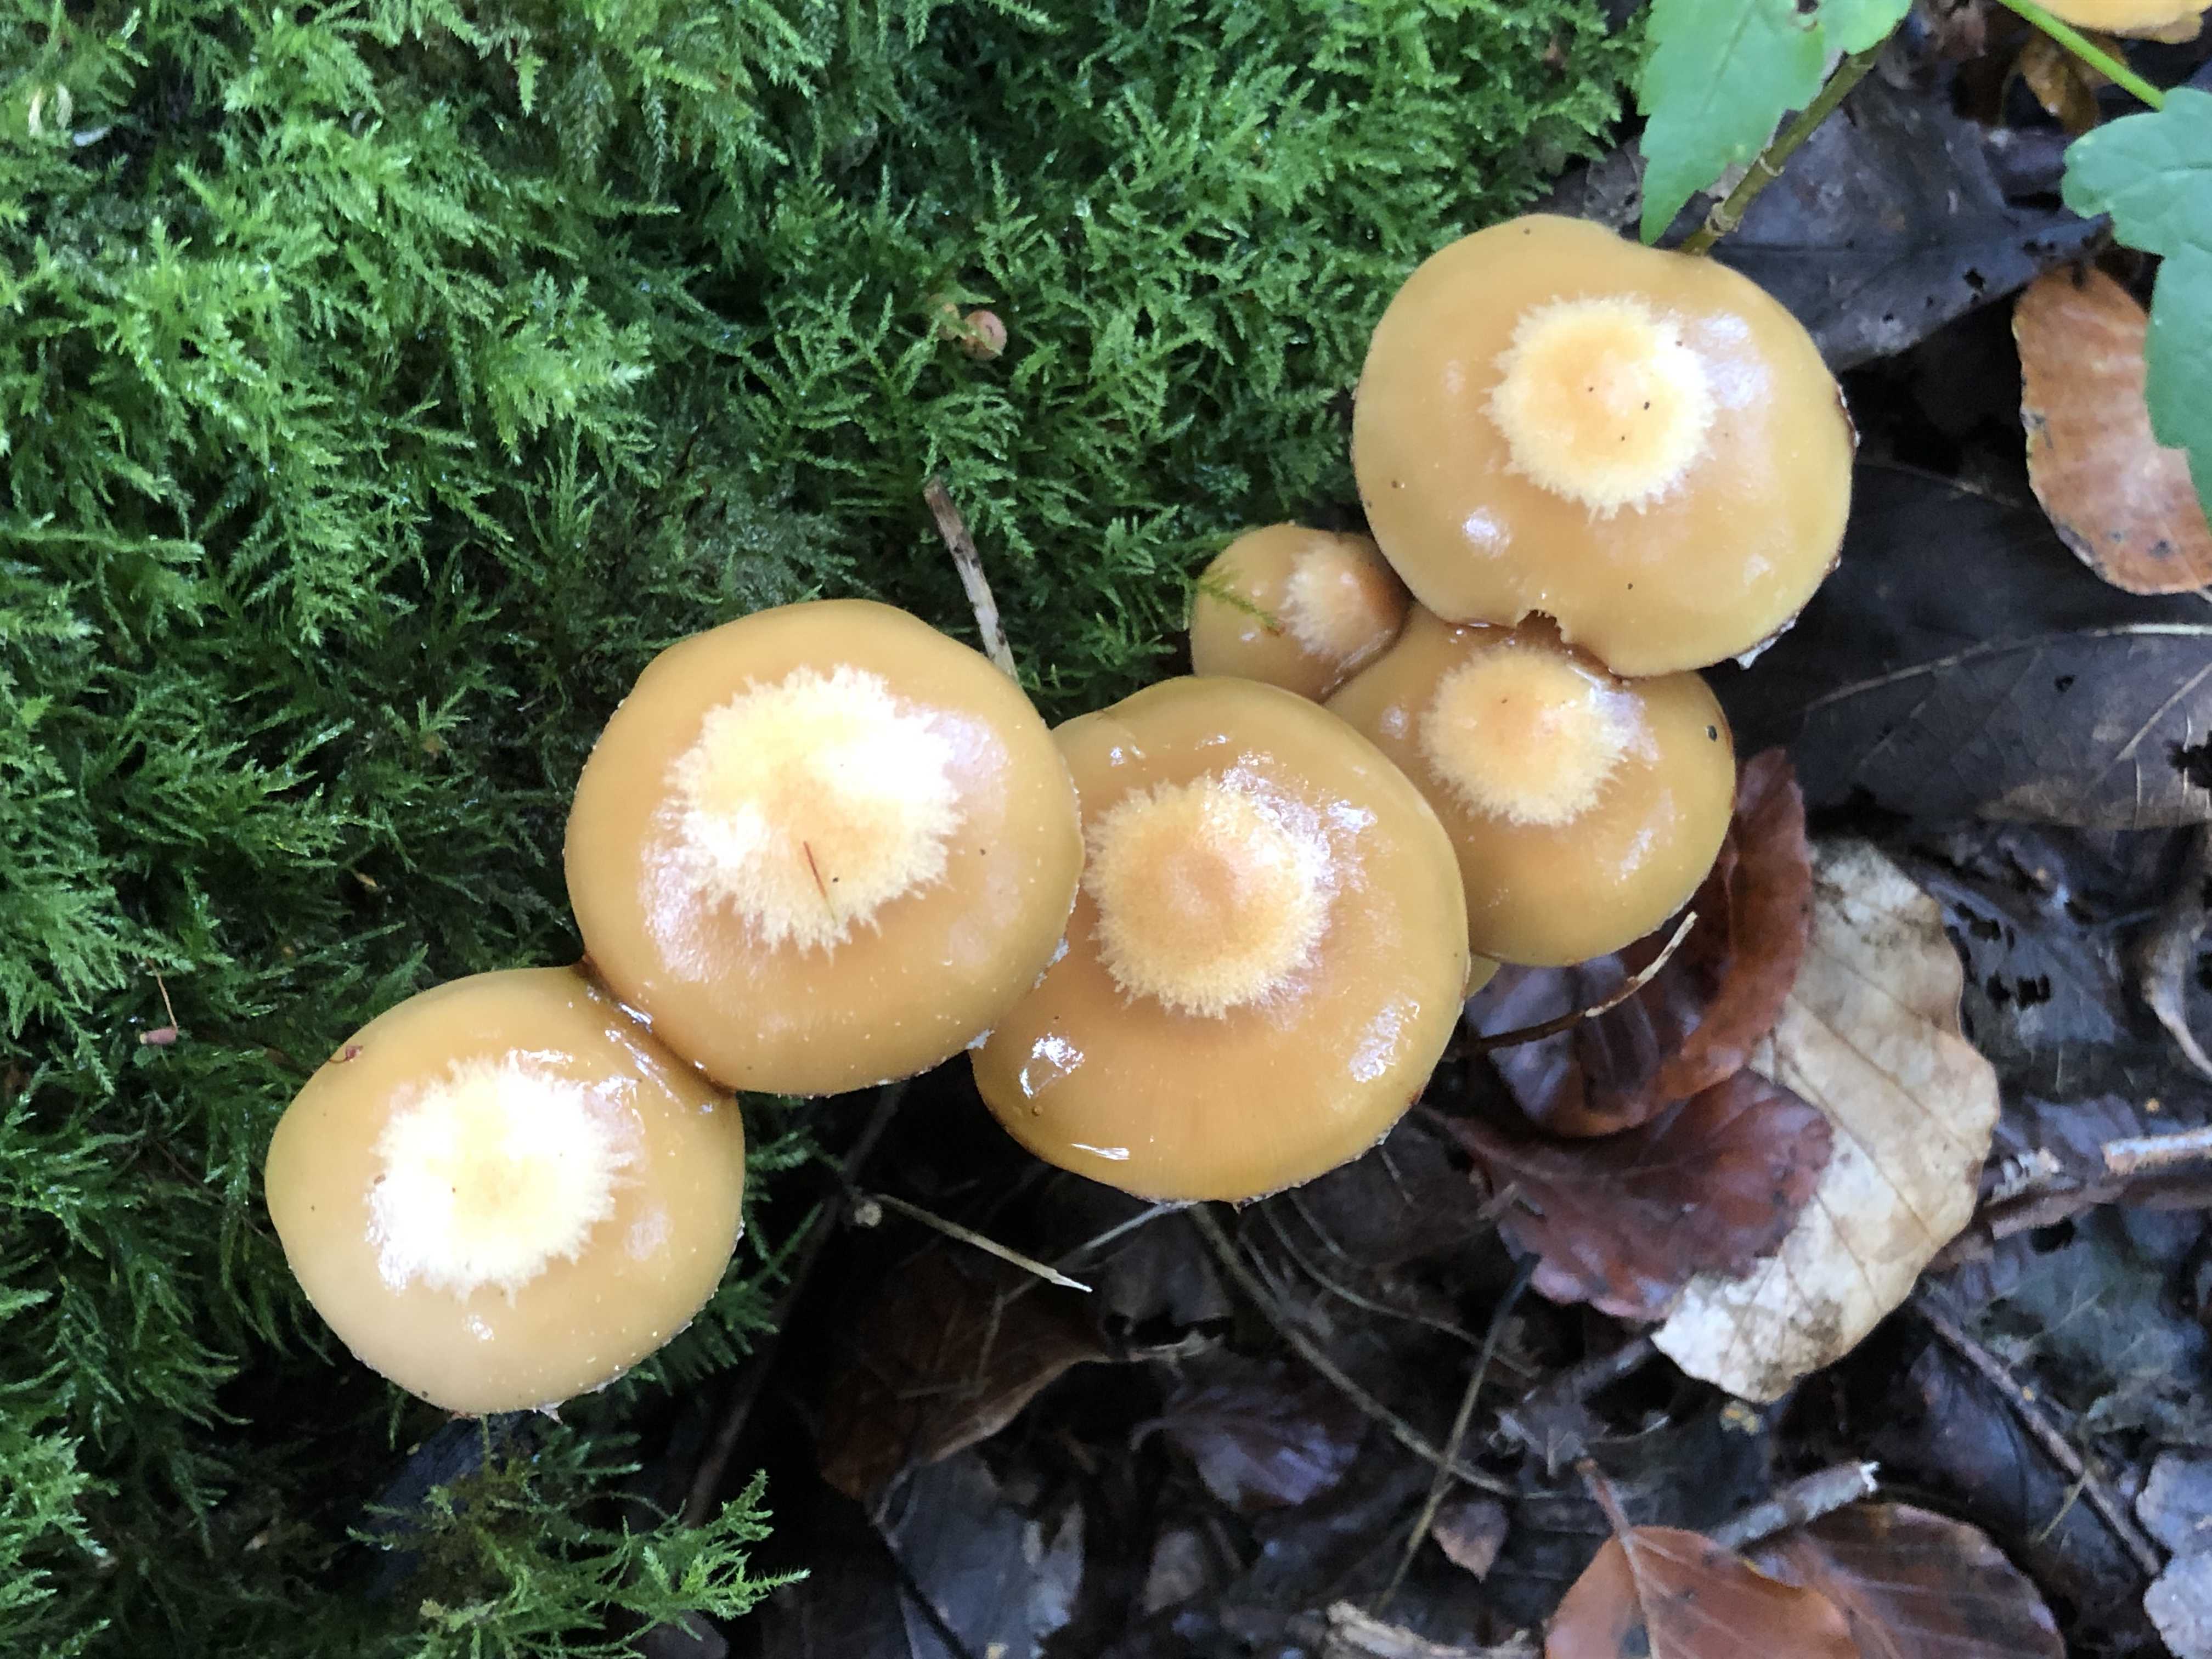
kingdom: Fungi
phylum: Basidiomycota
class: Agaricomycetes
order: Agaricales
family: Strophariaceae
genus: Kuehneromyces
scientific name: Kuehneromyces mutabilis
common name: foranderlig skælhat
